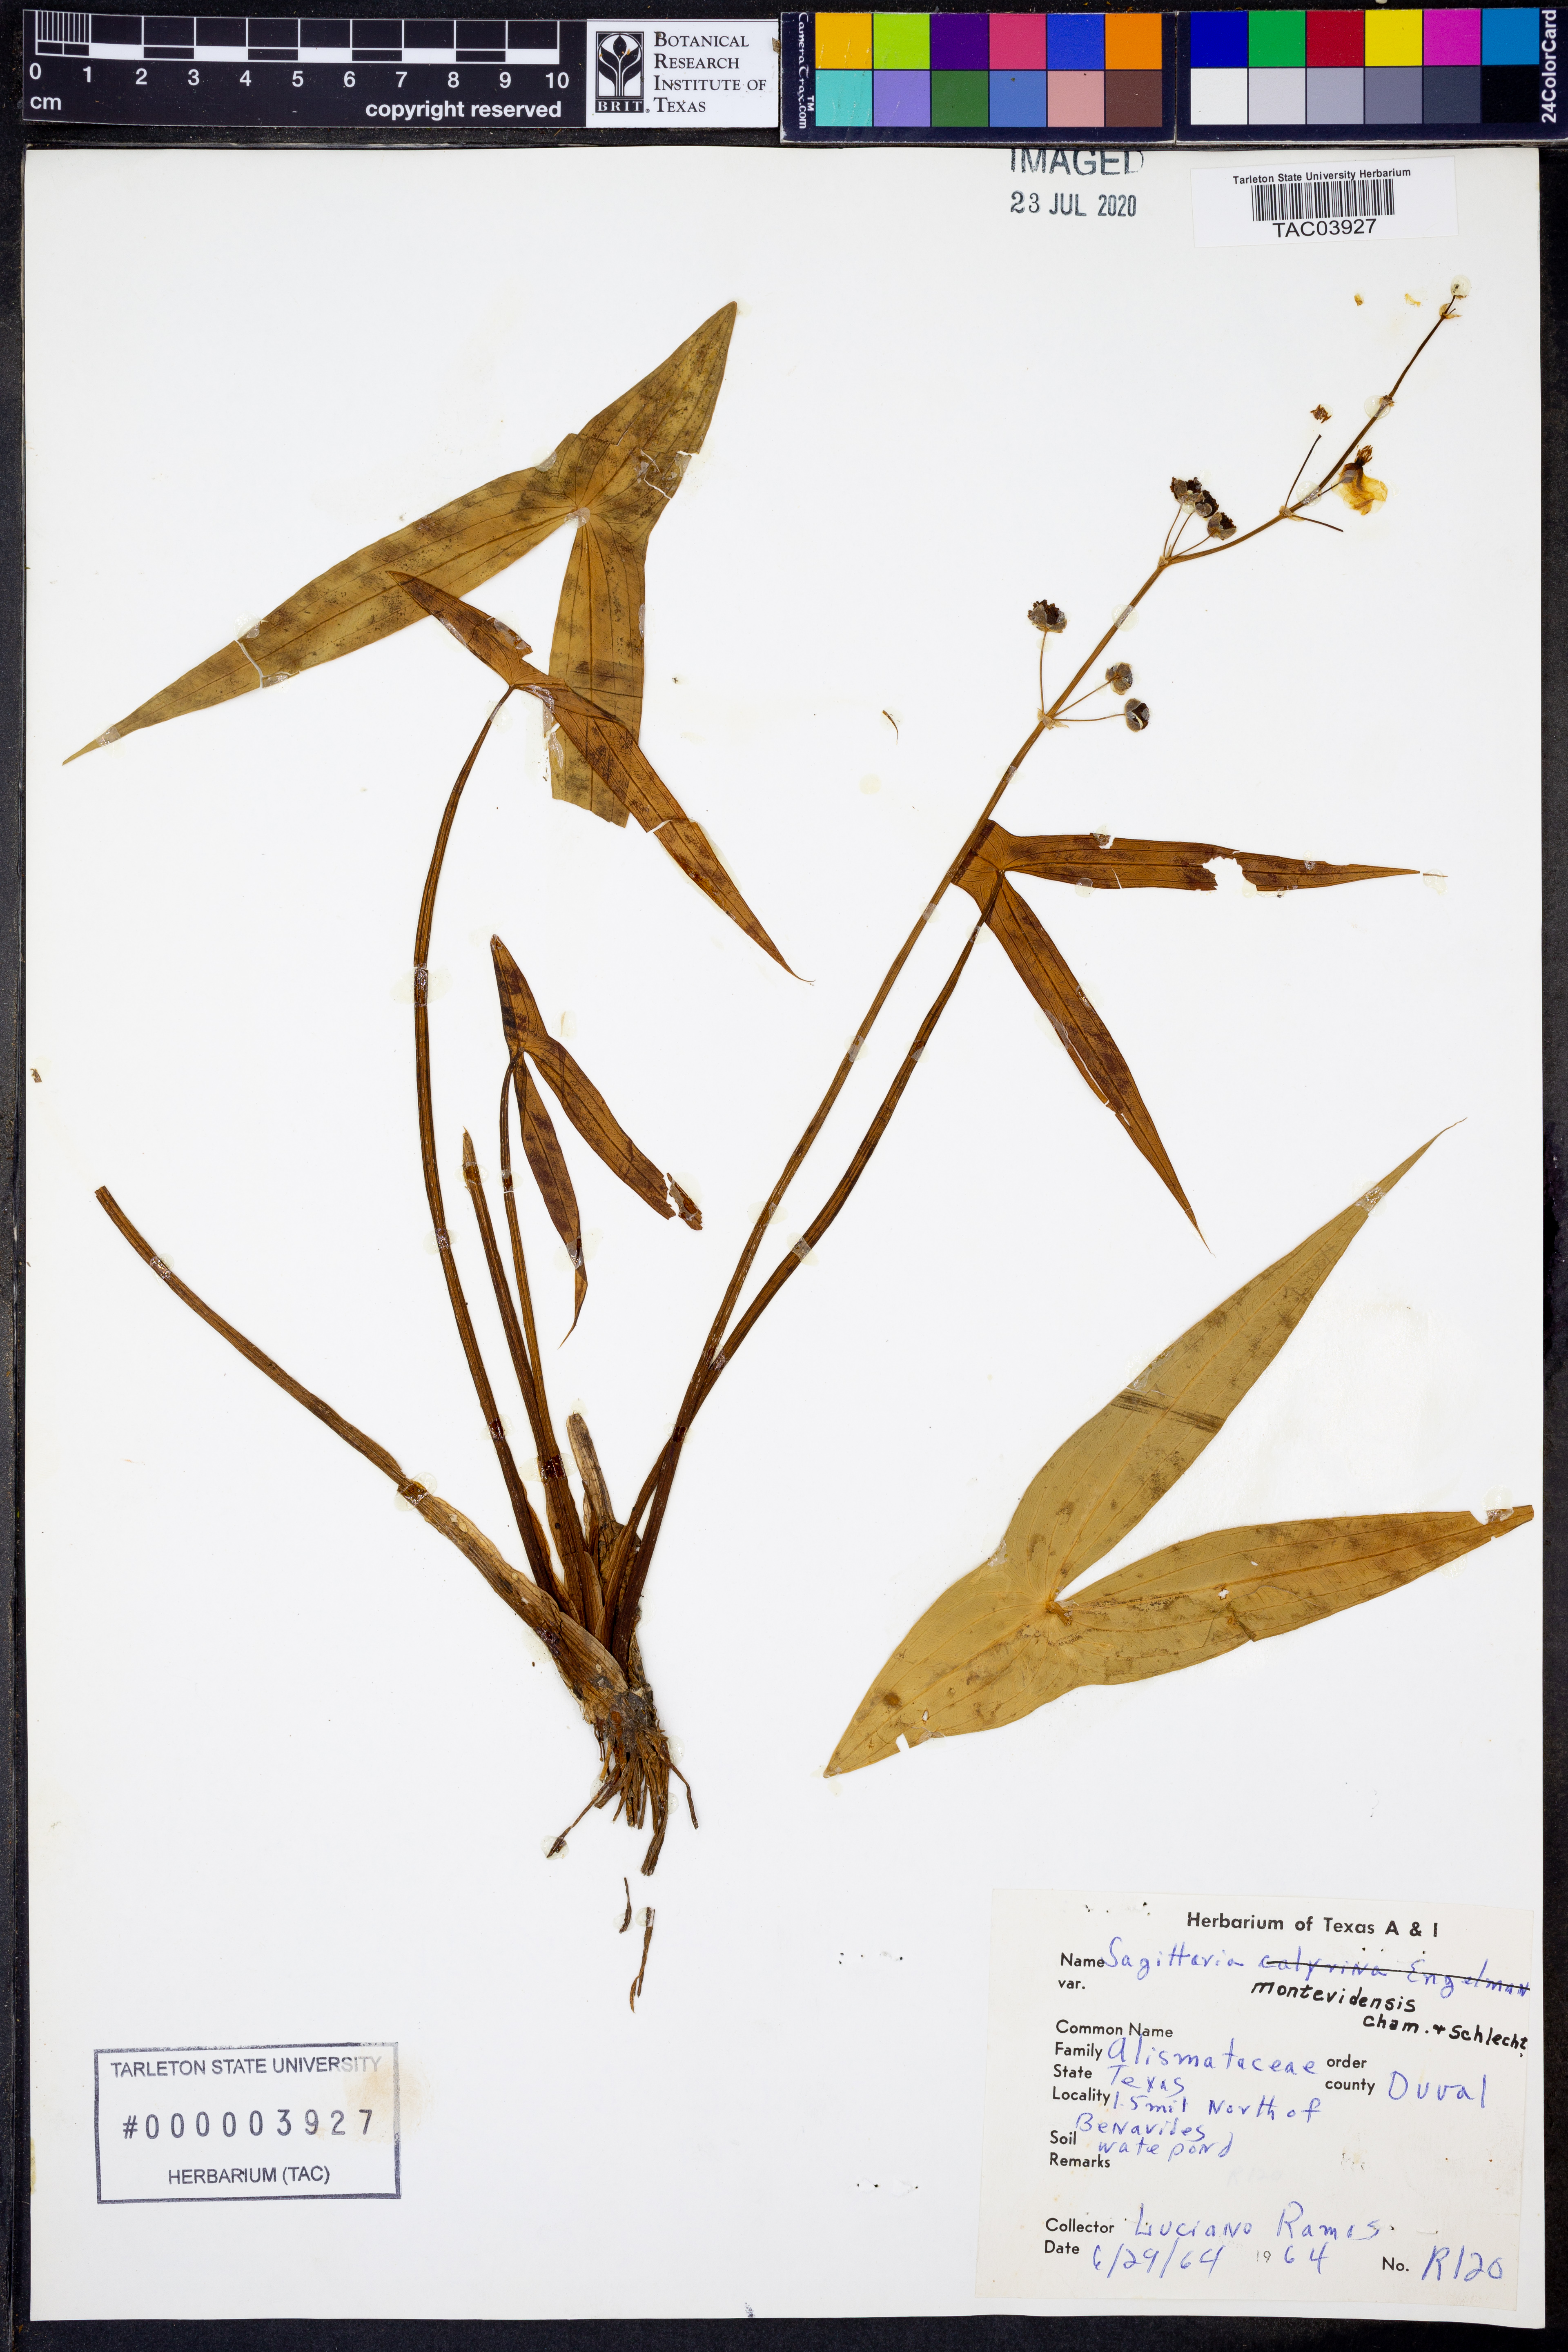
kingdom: Plantae
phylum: Tracheophyta
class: Liliopsida
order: Alismatales
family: Alismataceae
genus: Sagittaria
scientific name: Sagittaria montevidensis
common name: Giant arrowhead
